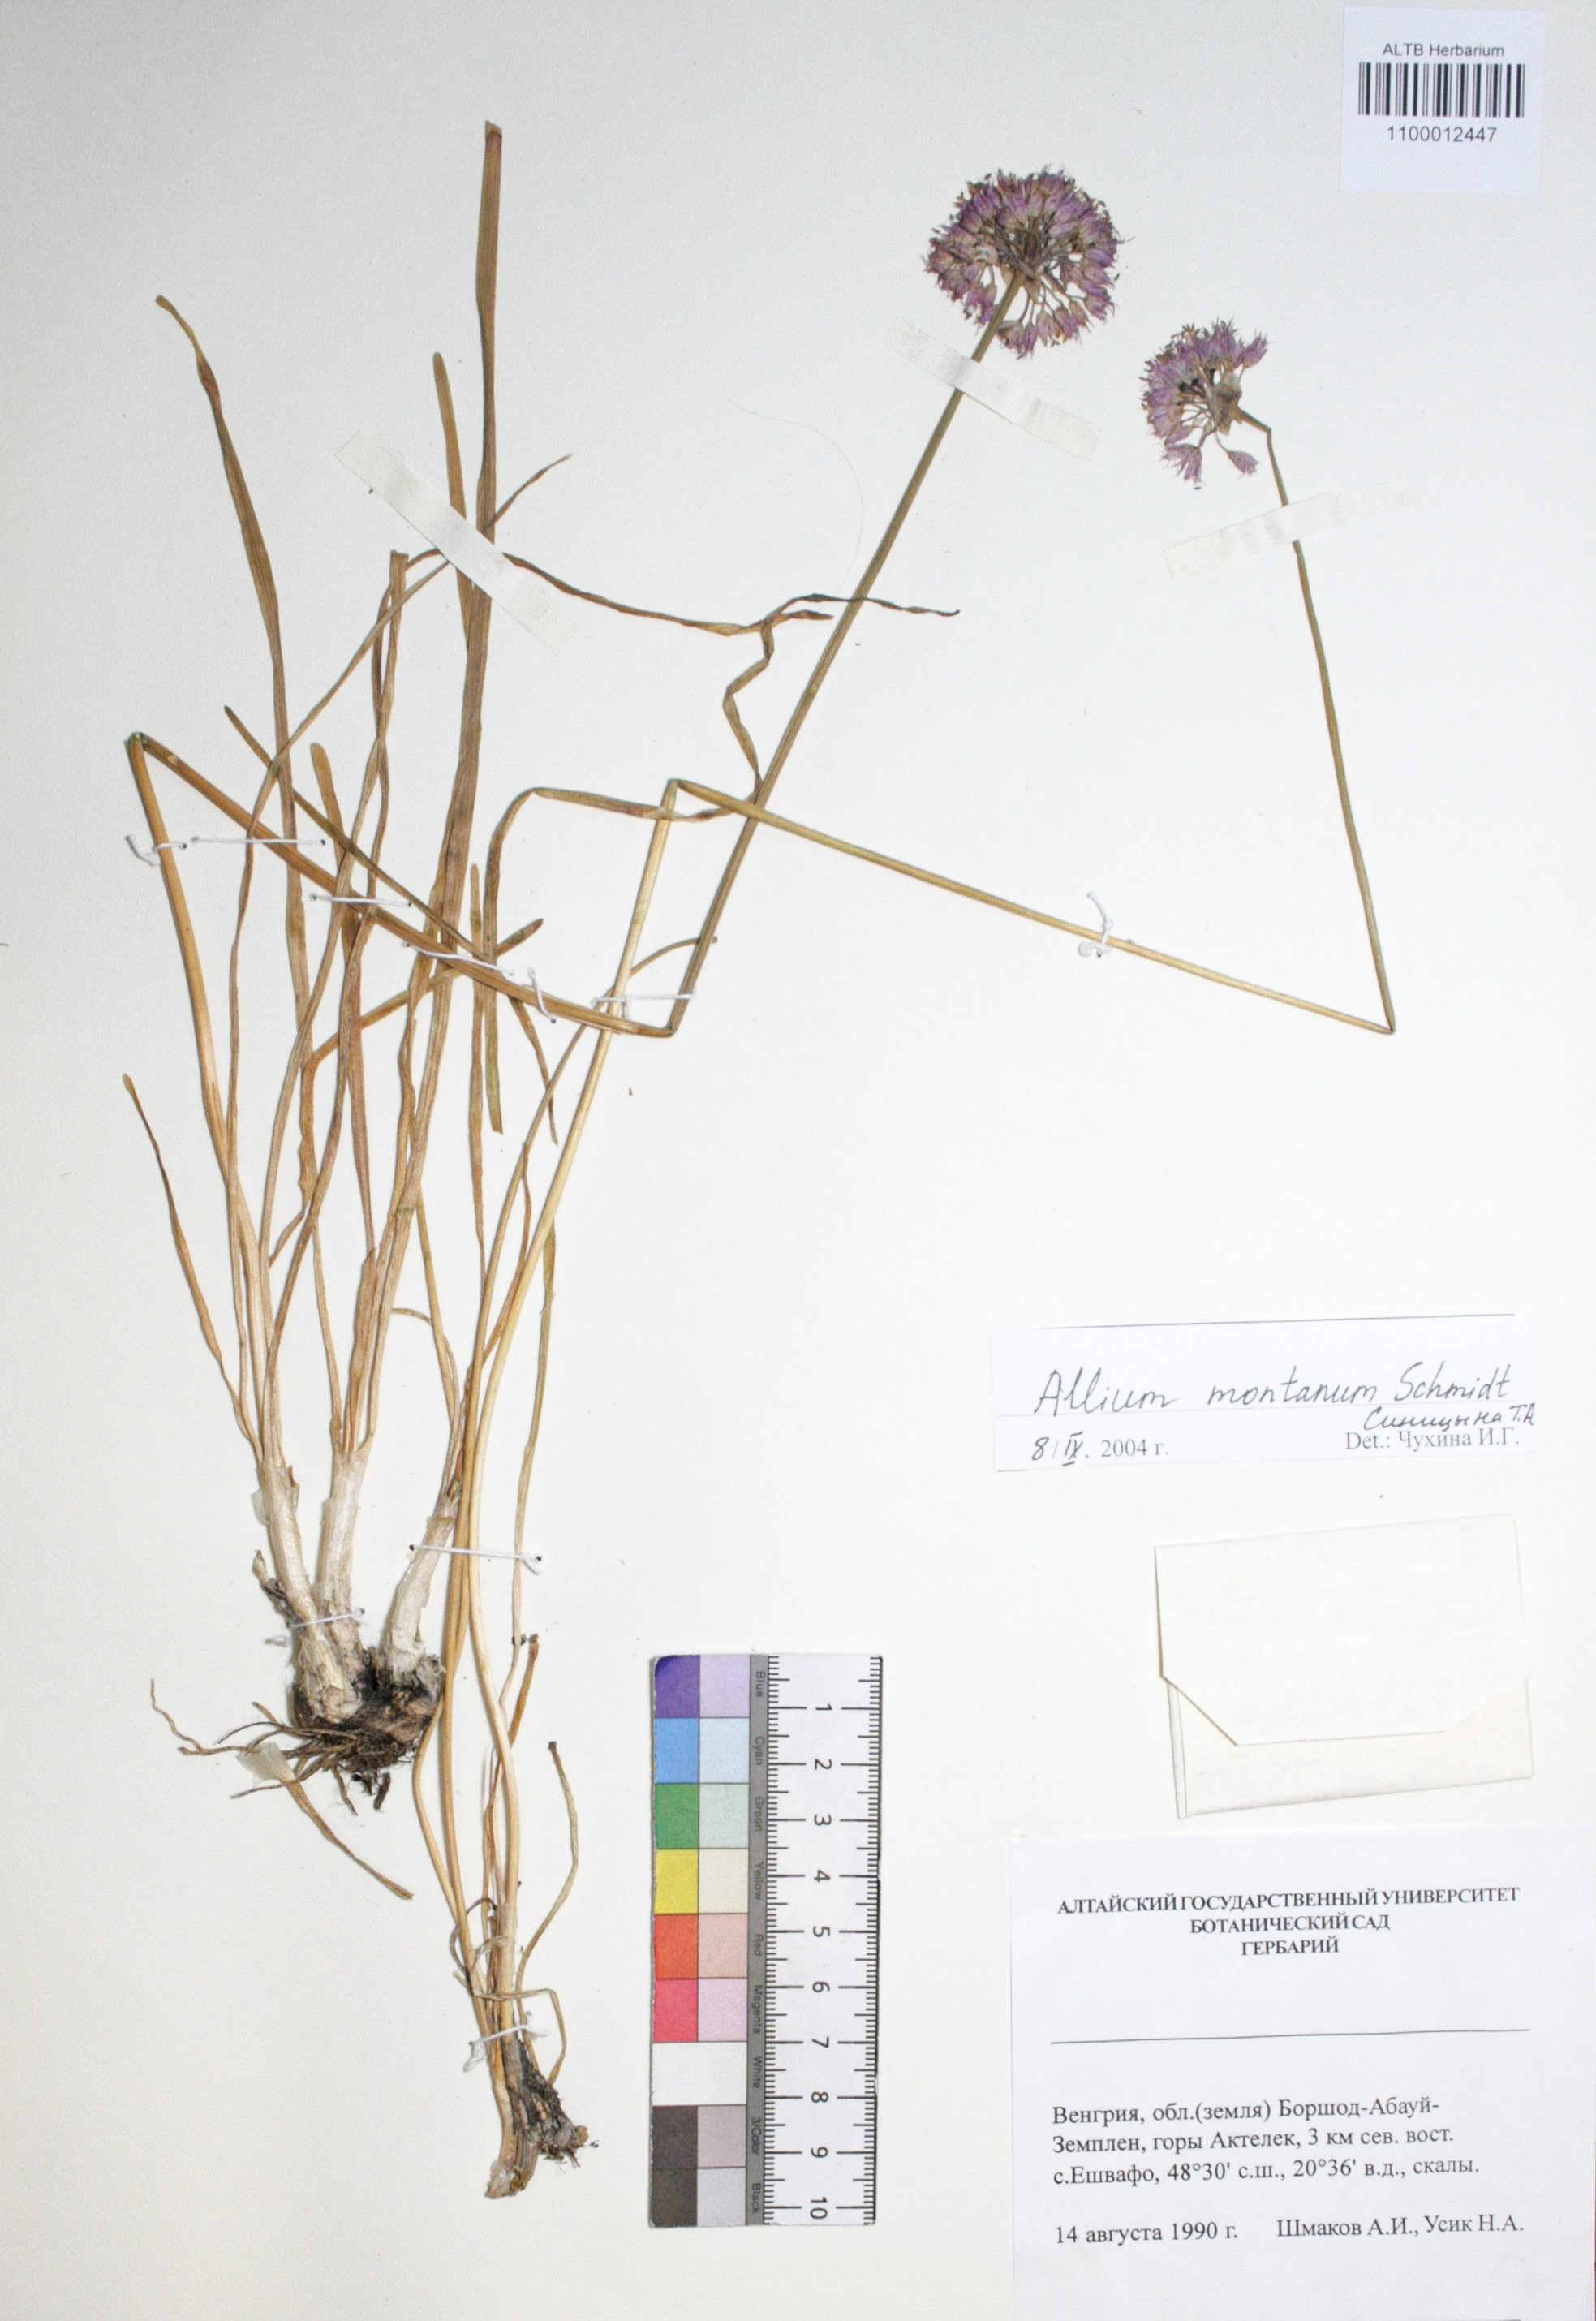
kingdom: Plantae
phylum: Tracheophyta
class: Liliopsida
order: Asparagales
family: Amaryllidaceae
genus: Allium
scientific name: Allium lusitanicum
